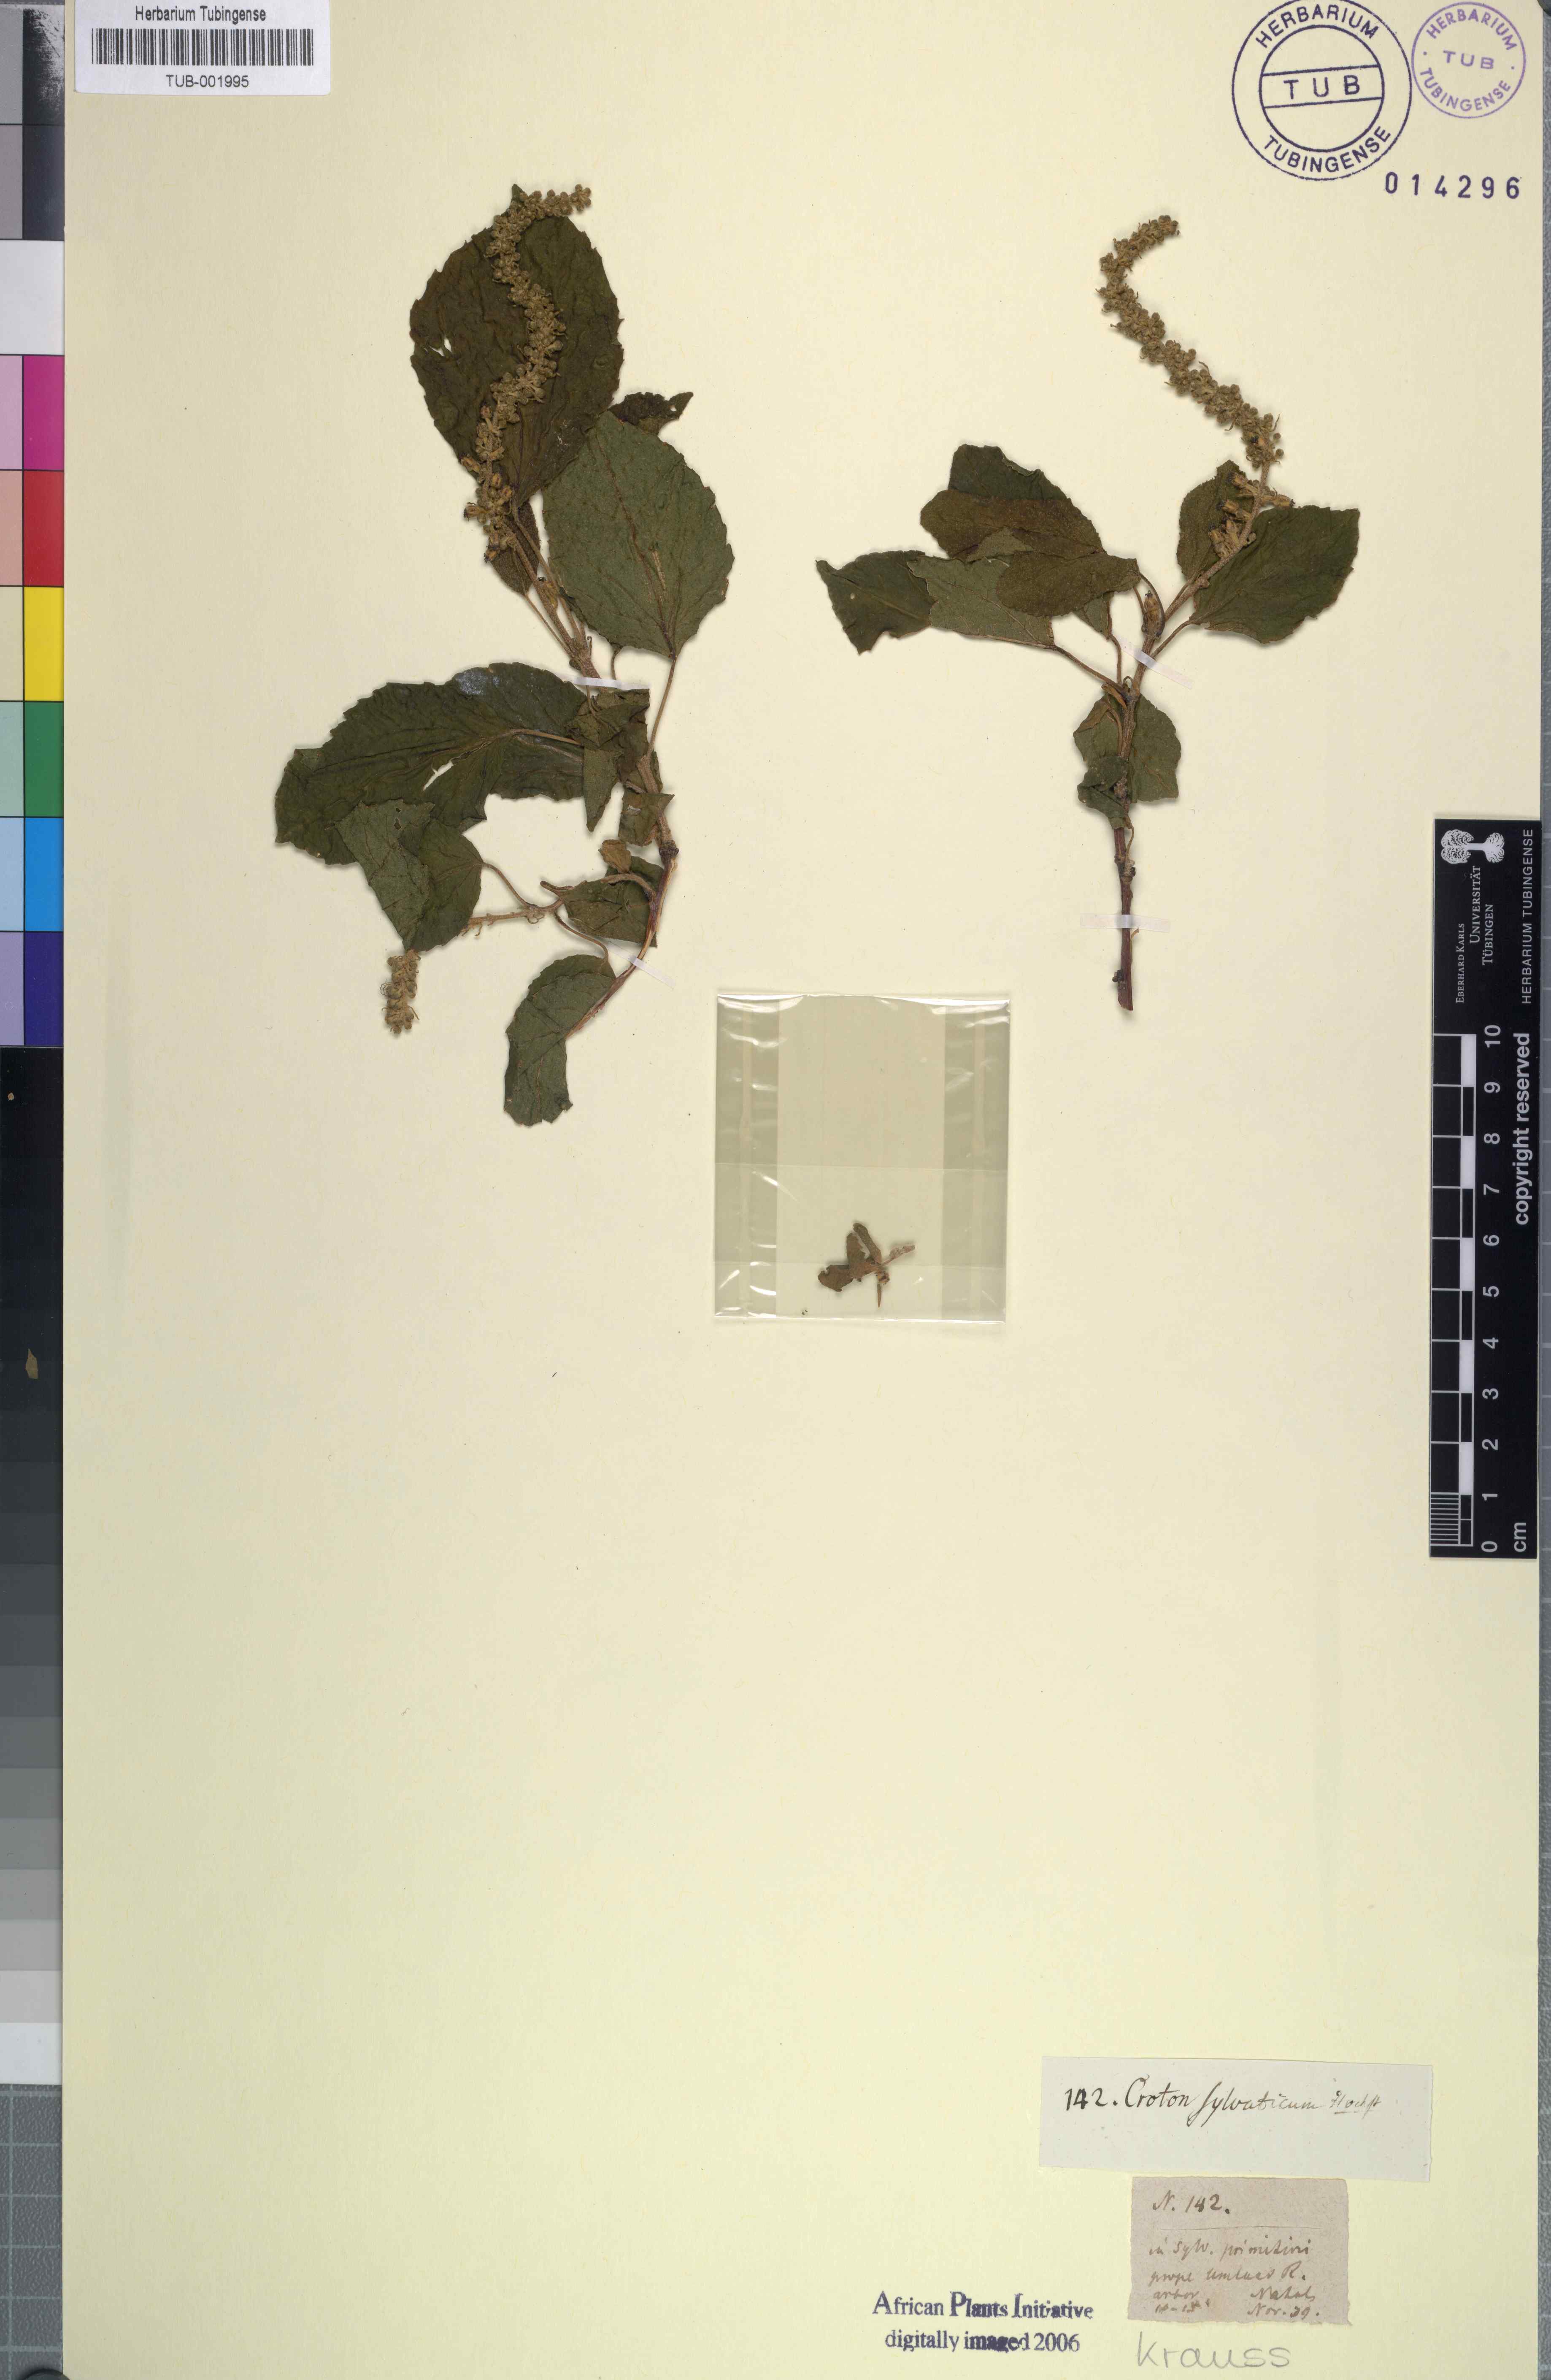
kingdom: Plantae
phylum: Tracheophyta
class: Magnoliopsida
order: Malpighiales
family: Euphorbiaceae
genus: Croton
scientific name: Croton sylvaticus
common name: Forest croton
